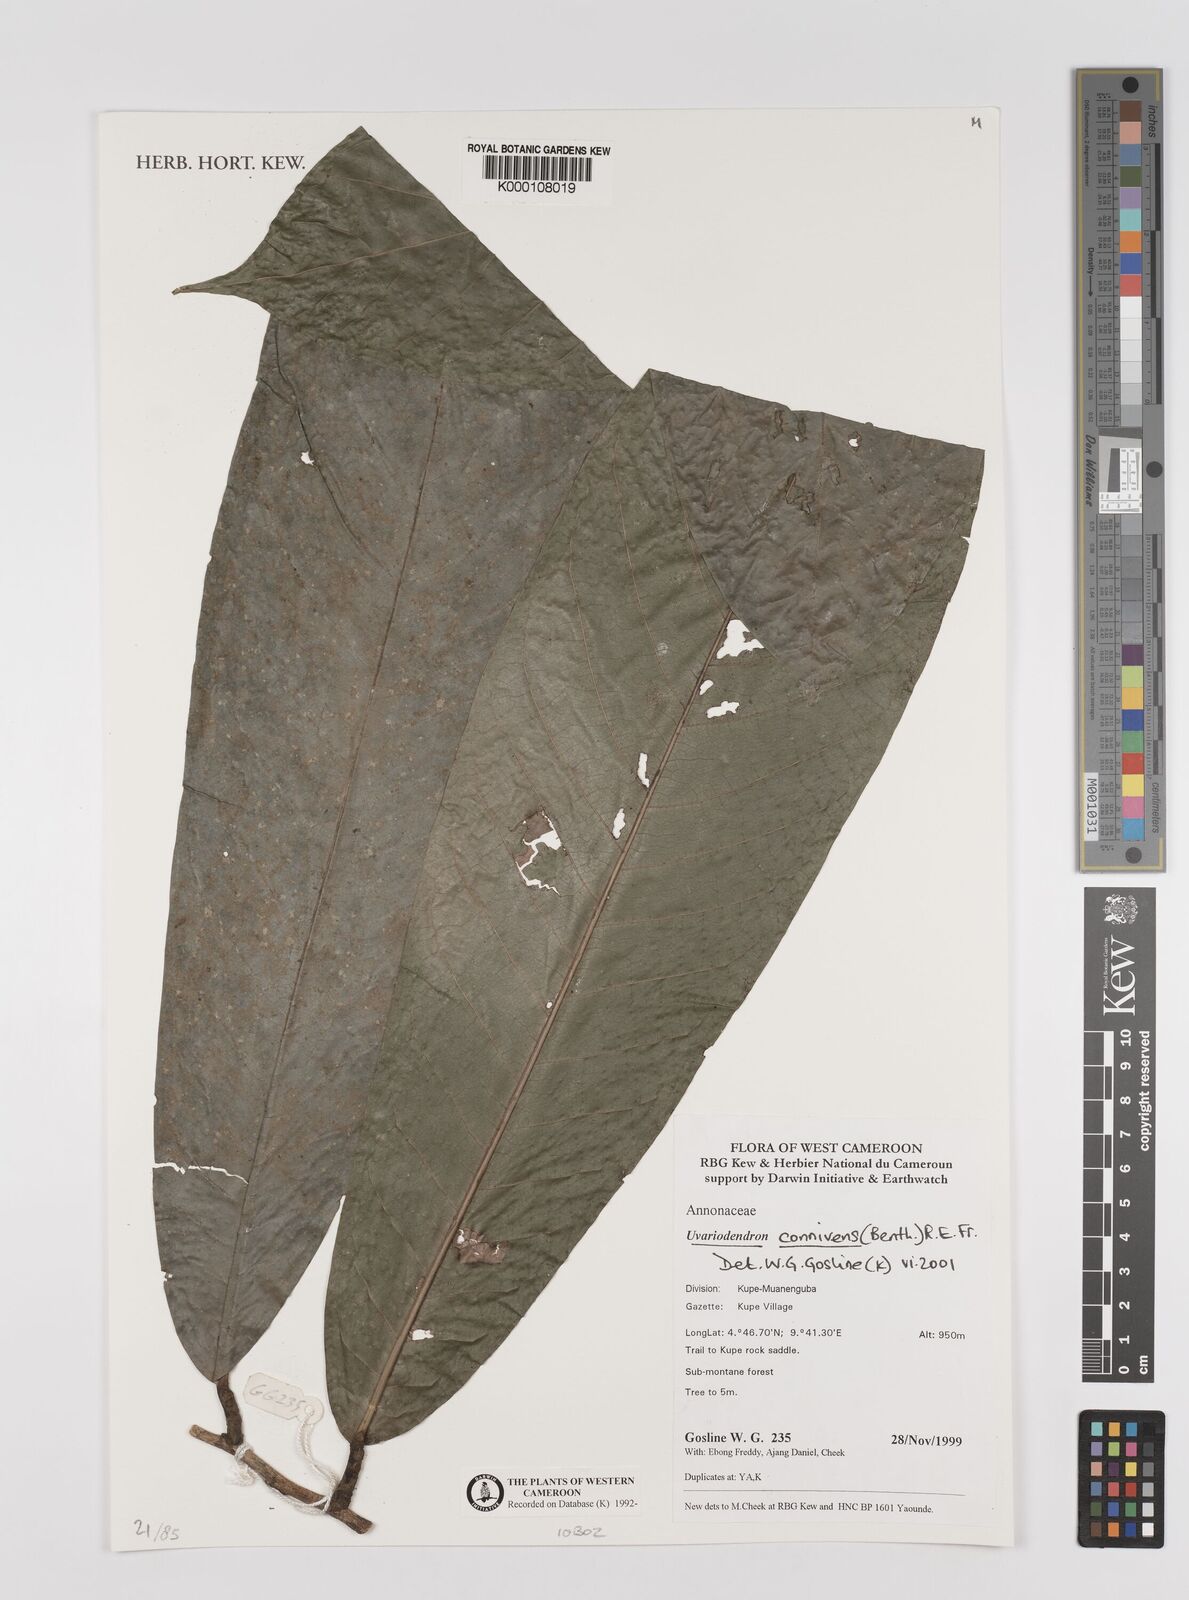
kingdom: Plantae
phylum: Tracheophyta
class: Magnoliopsida
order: Magnoliales
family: Annonaceae
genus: Uvariodendron
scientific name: Uvariodendron connivens
